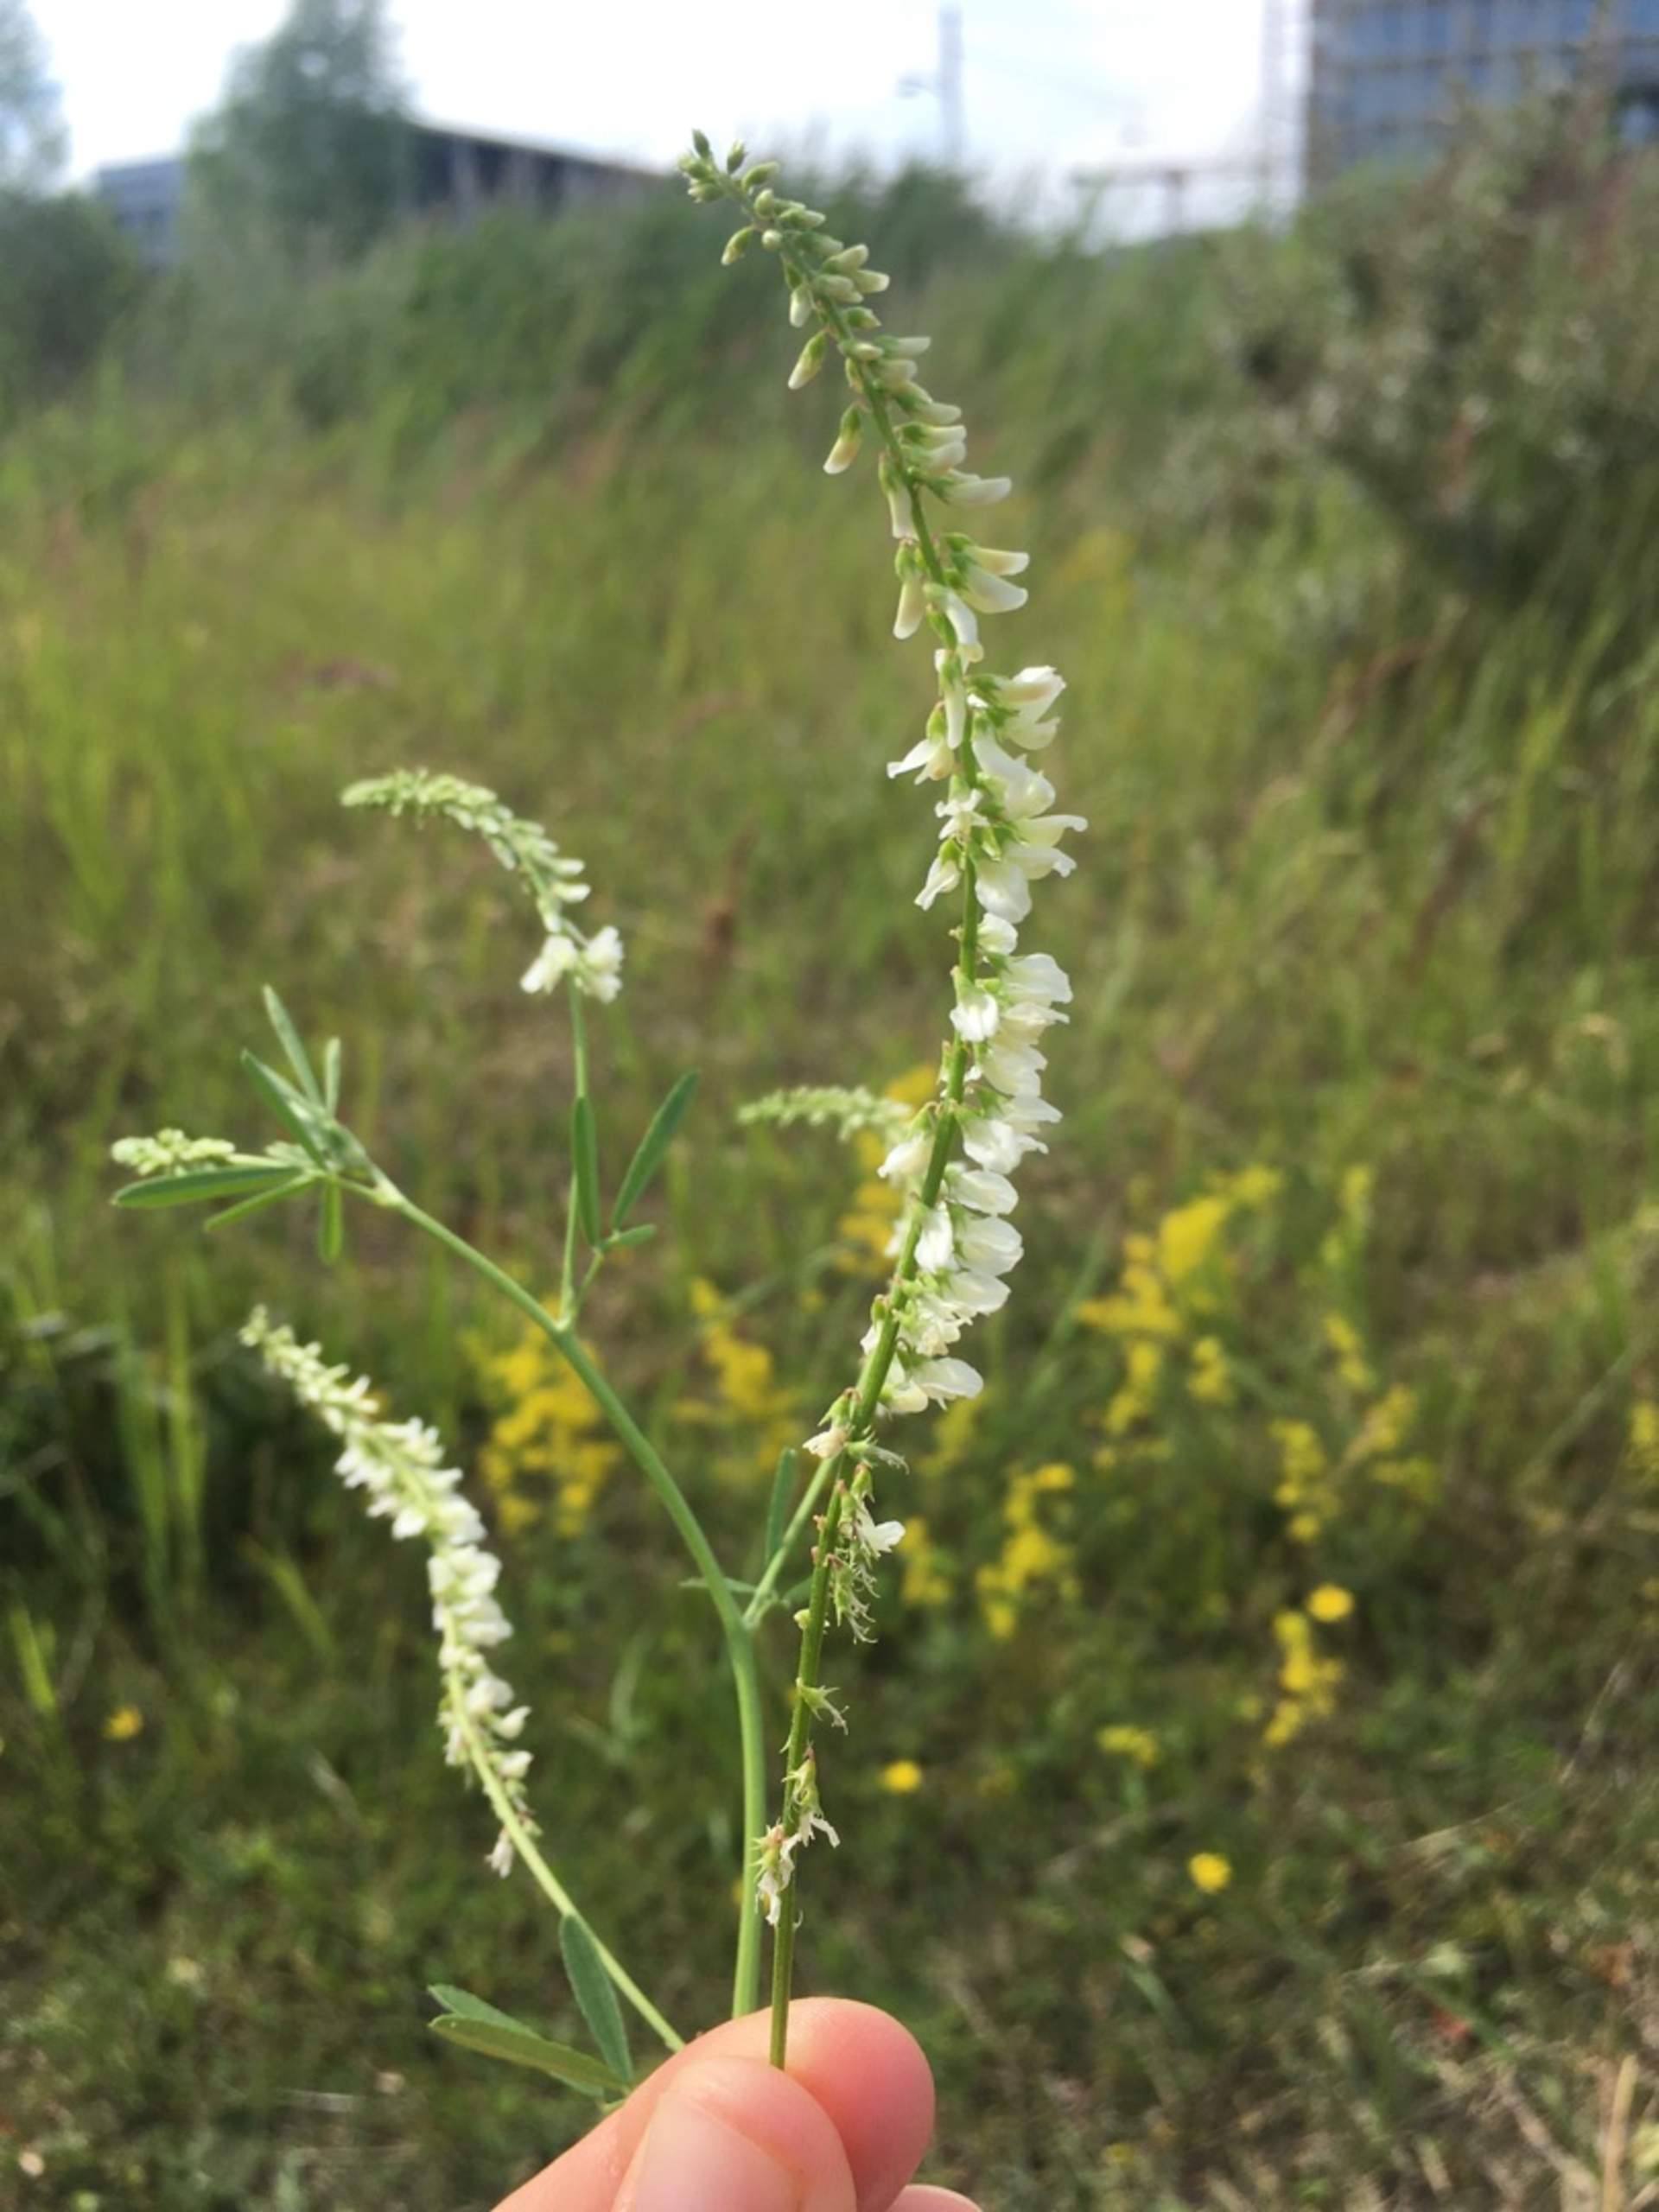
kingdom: Plantae
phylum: Tracheophyta
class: Magnoliopsida
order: Fabales
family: Fabaceae
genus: Melilotus
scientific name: Melilotus albus
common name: Hvid stenkløver
